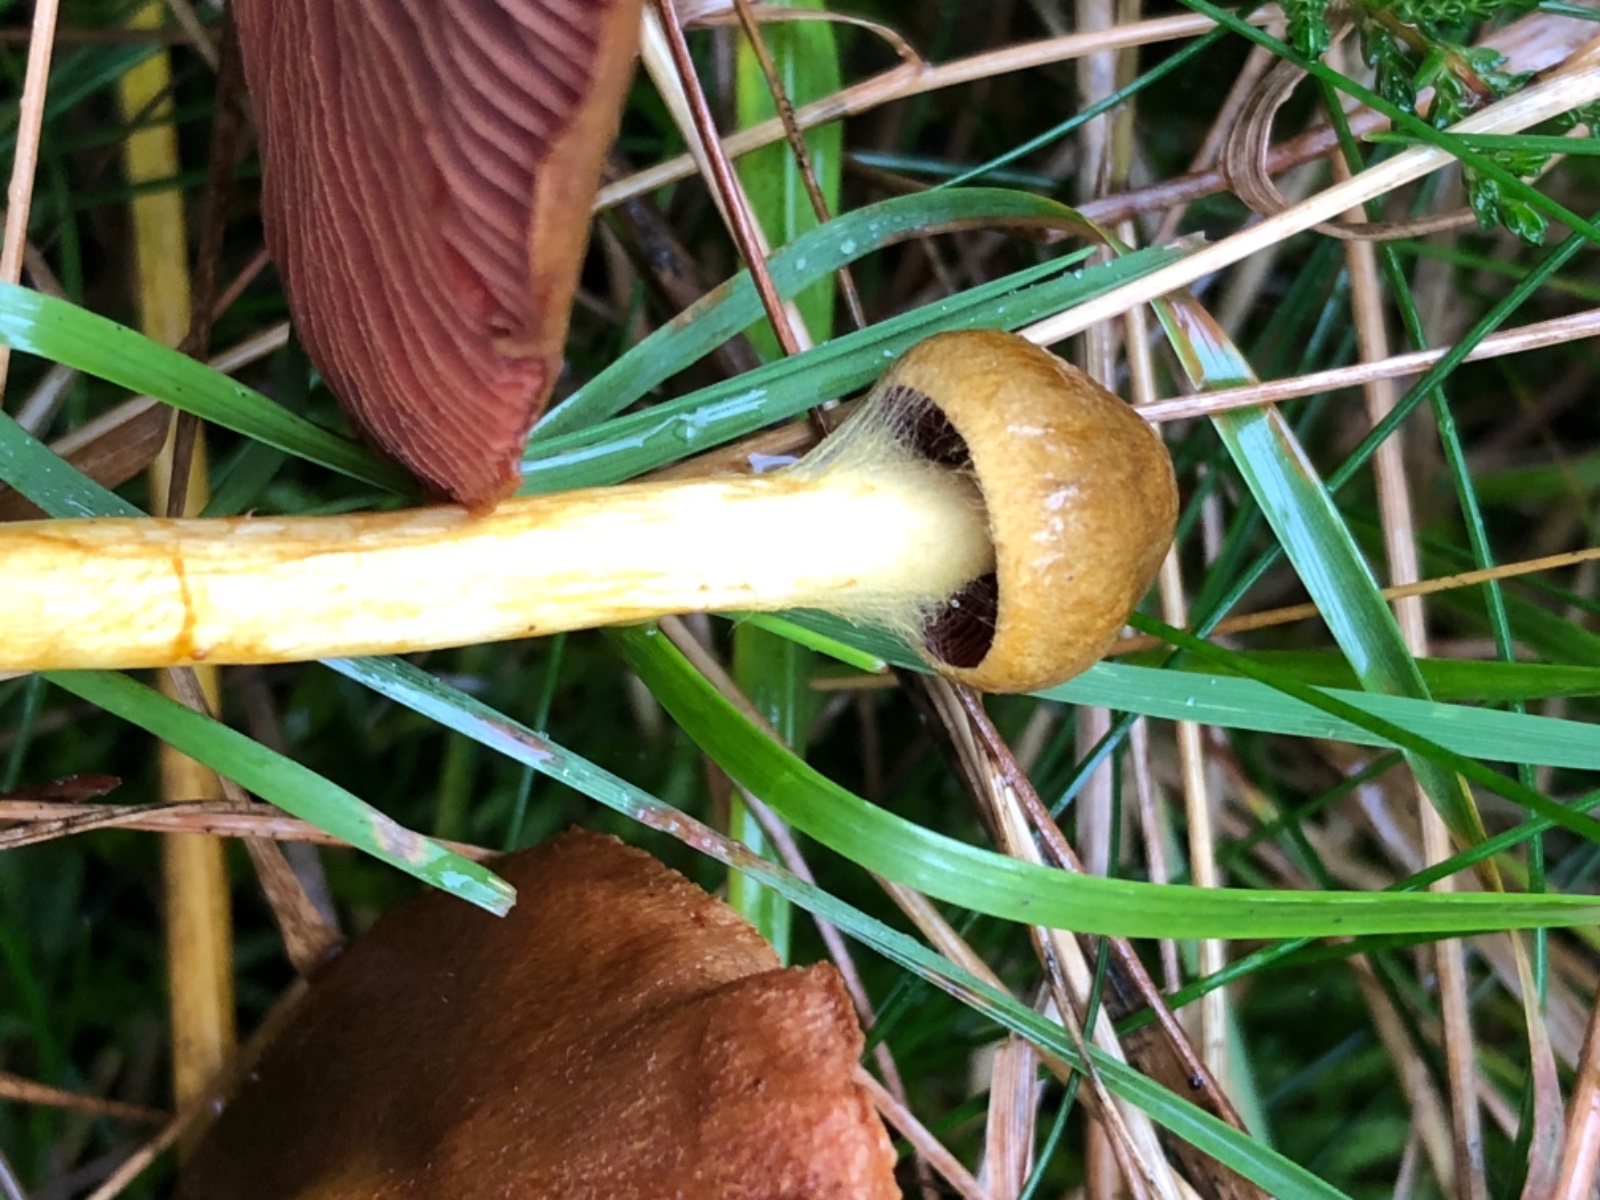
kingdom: Fungi
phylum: Basidiomycota
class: Agaricomycetes
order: Agaricales
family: Cortinariaceae
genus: Cortinarius
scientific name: Cortinarius
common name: cinnoberbladet slørhat
